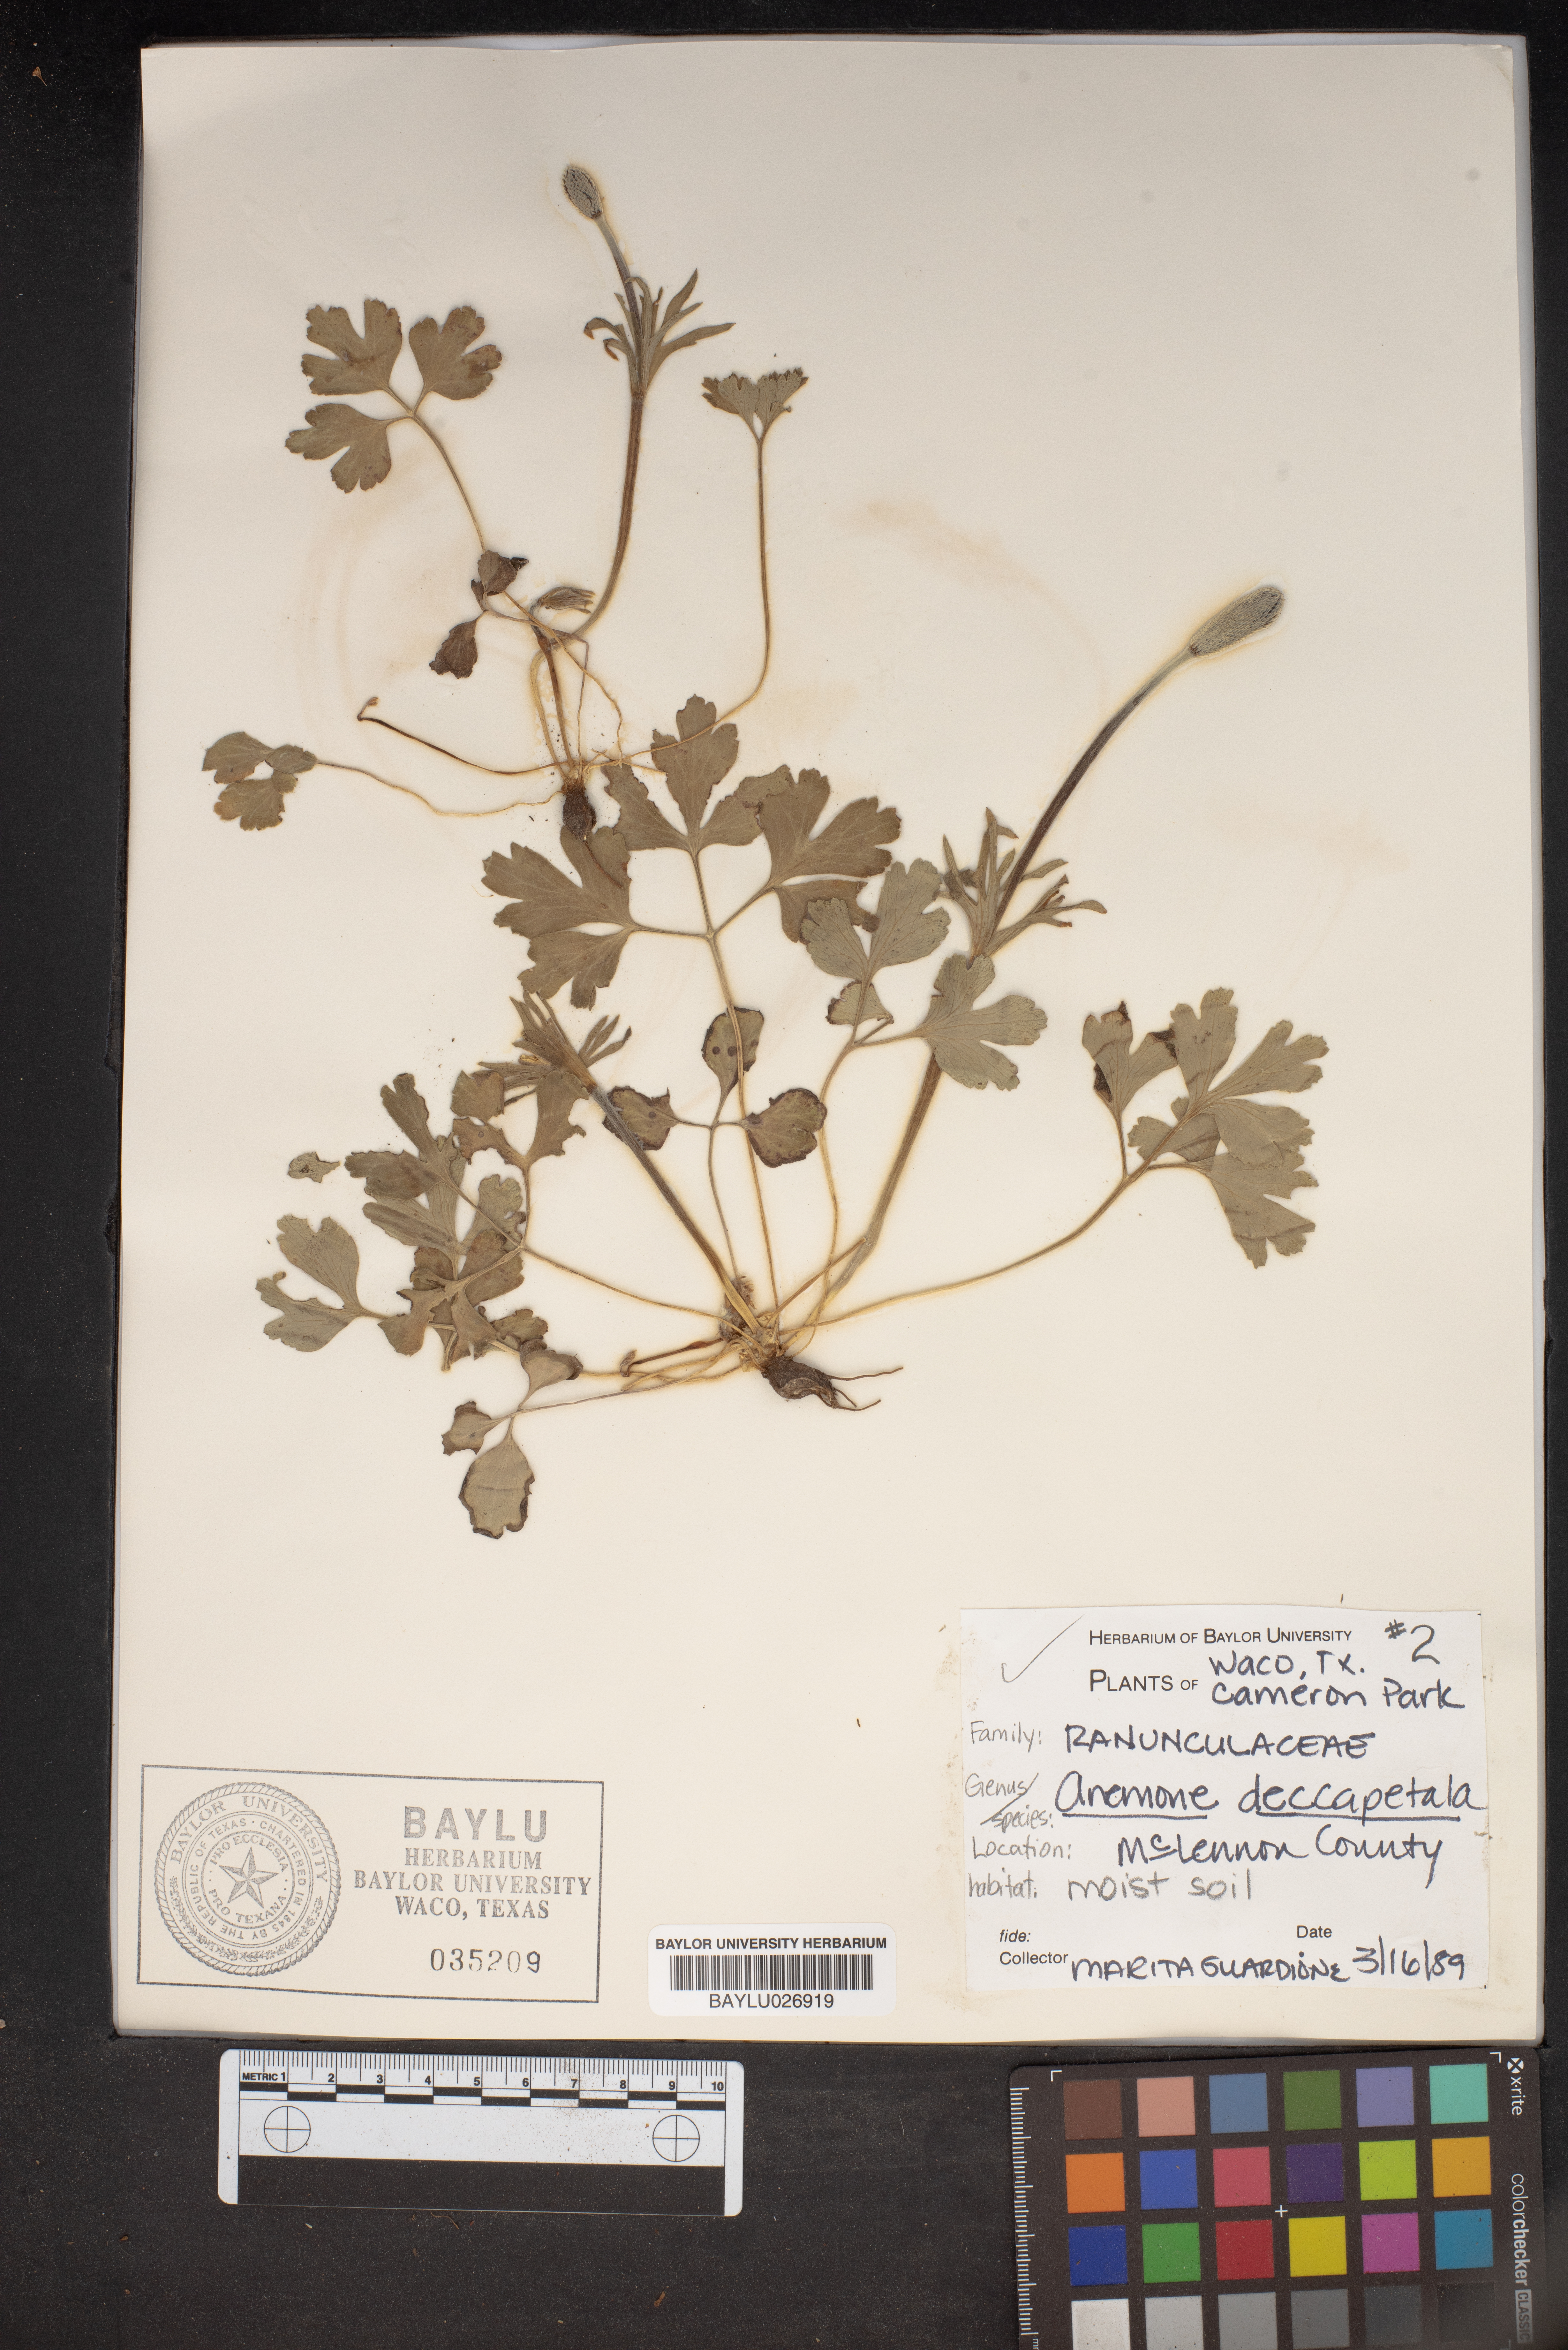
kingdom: Plantae
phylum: Tracheophyta
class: Magnoliopsida
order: Ranunculales
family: Ranunculaceae
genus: Anemone
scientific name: Anemone decapetala
